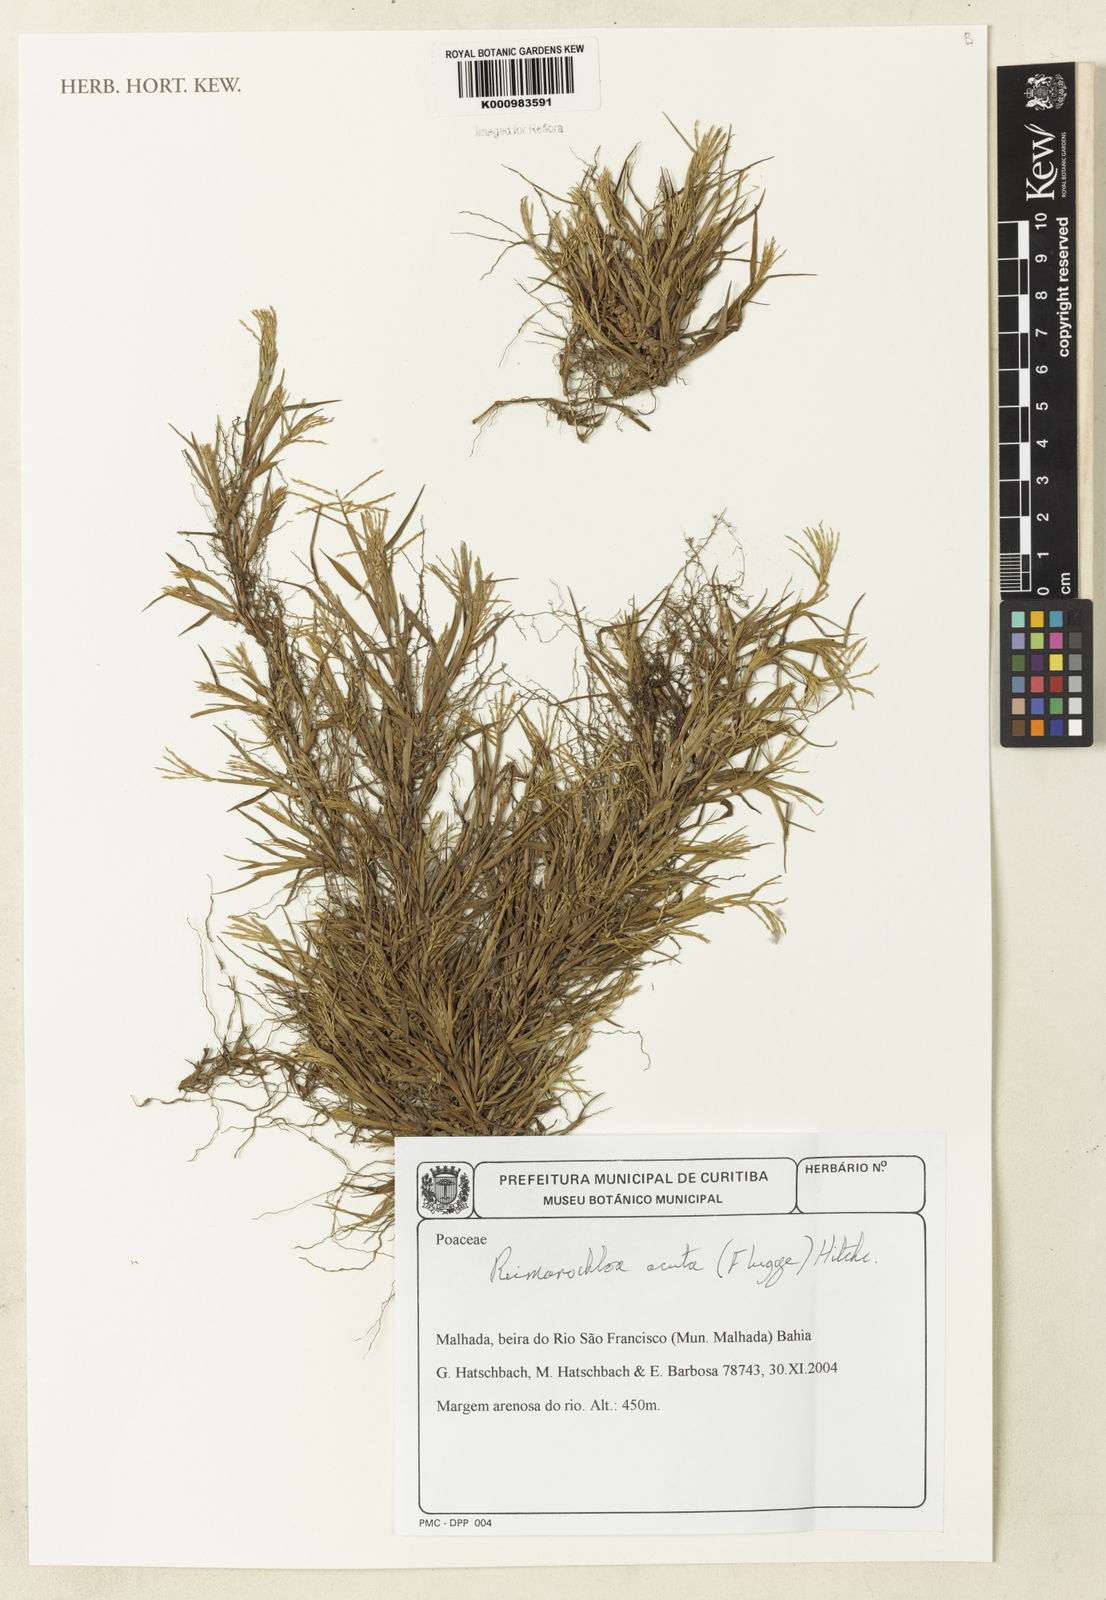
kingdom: Plantae
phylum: Tracheophyta
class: Liliopsida
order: Poales
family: Poaceae
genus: Paspalum
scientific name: Paspalum
